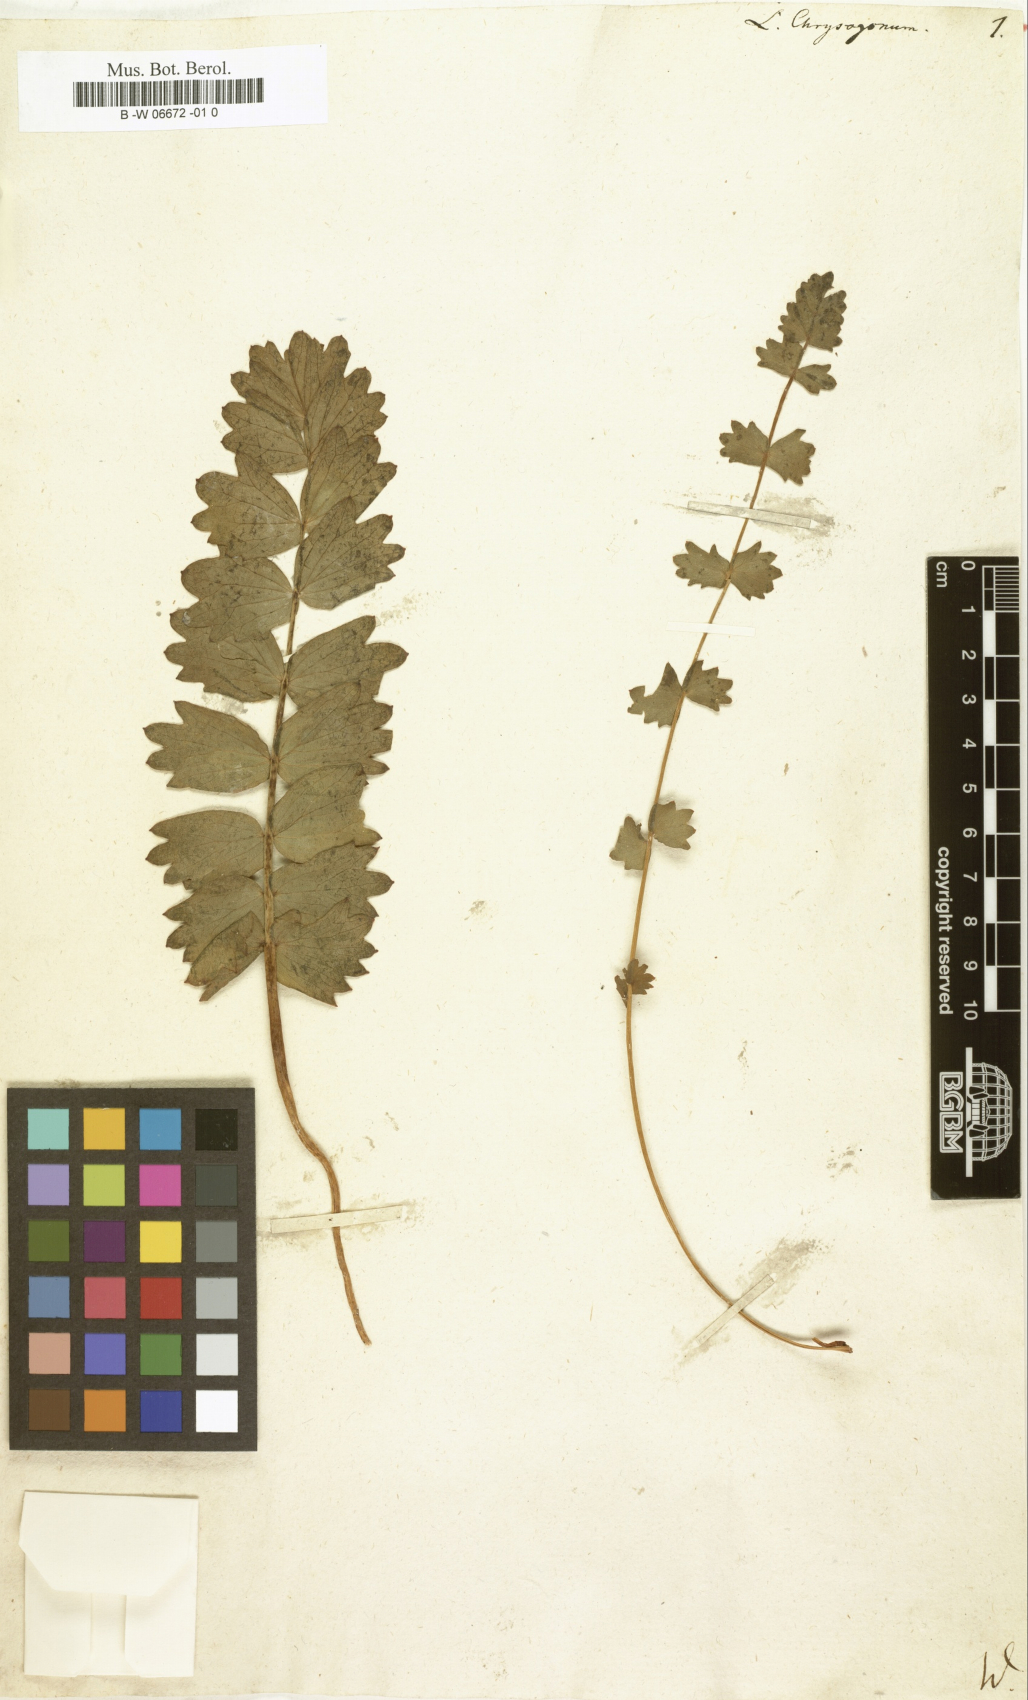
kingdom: Plantae
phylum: Tracheophyta
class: Magnoliopsida
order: Ranunculales
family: Berberidaceae
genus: Bongardia
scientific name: Bongardia chrysogonum
